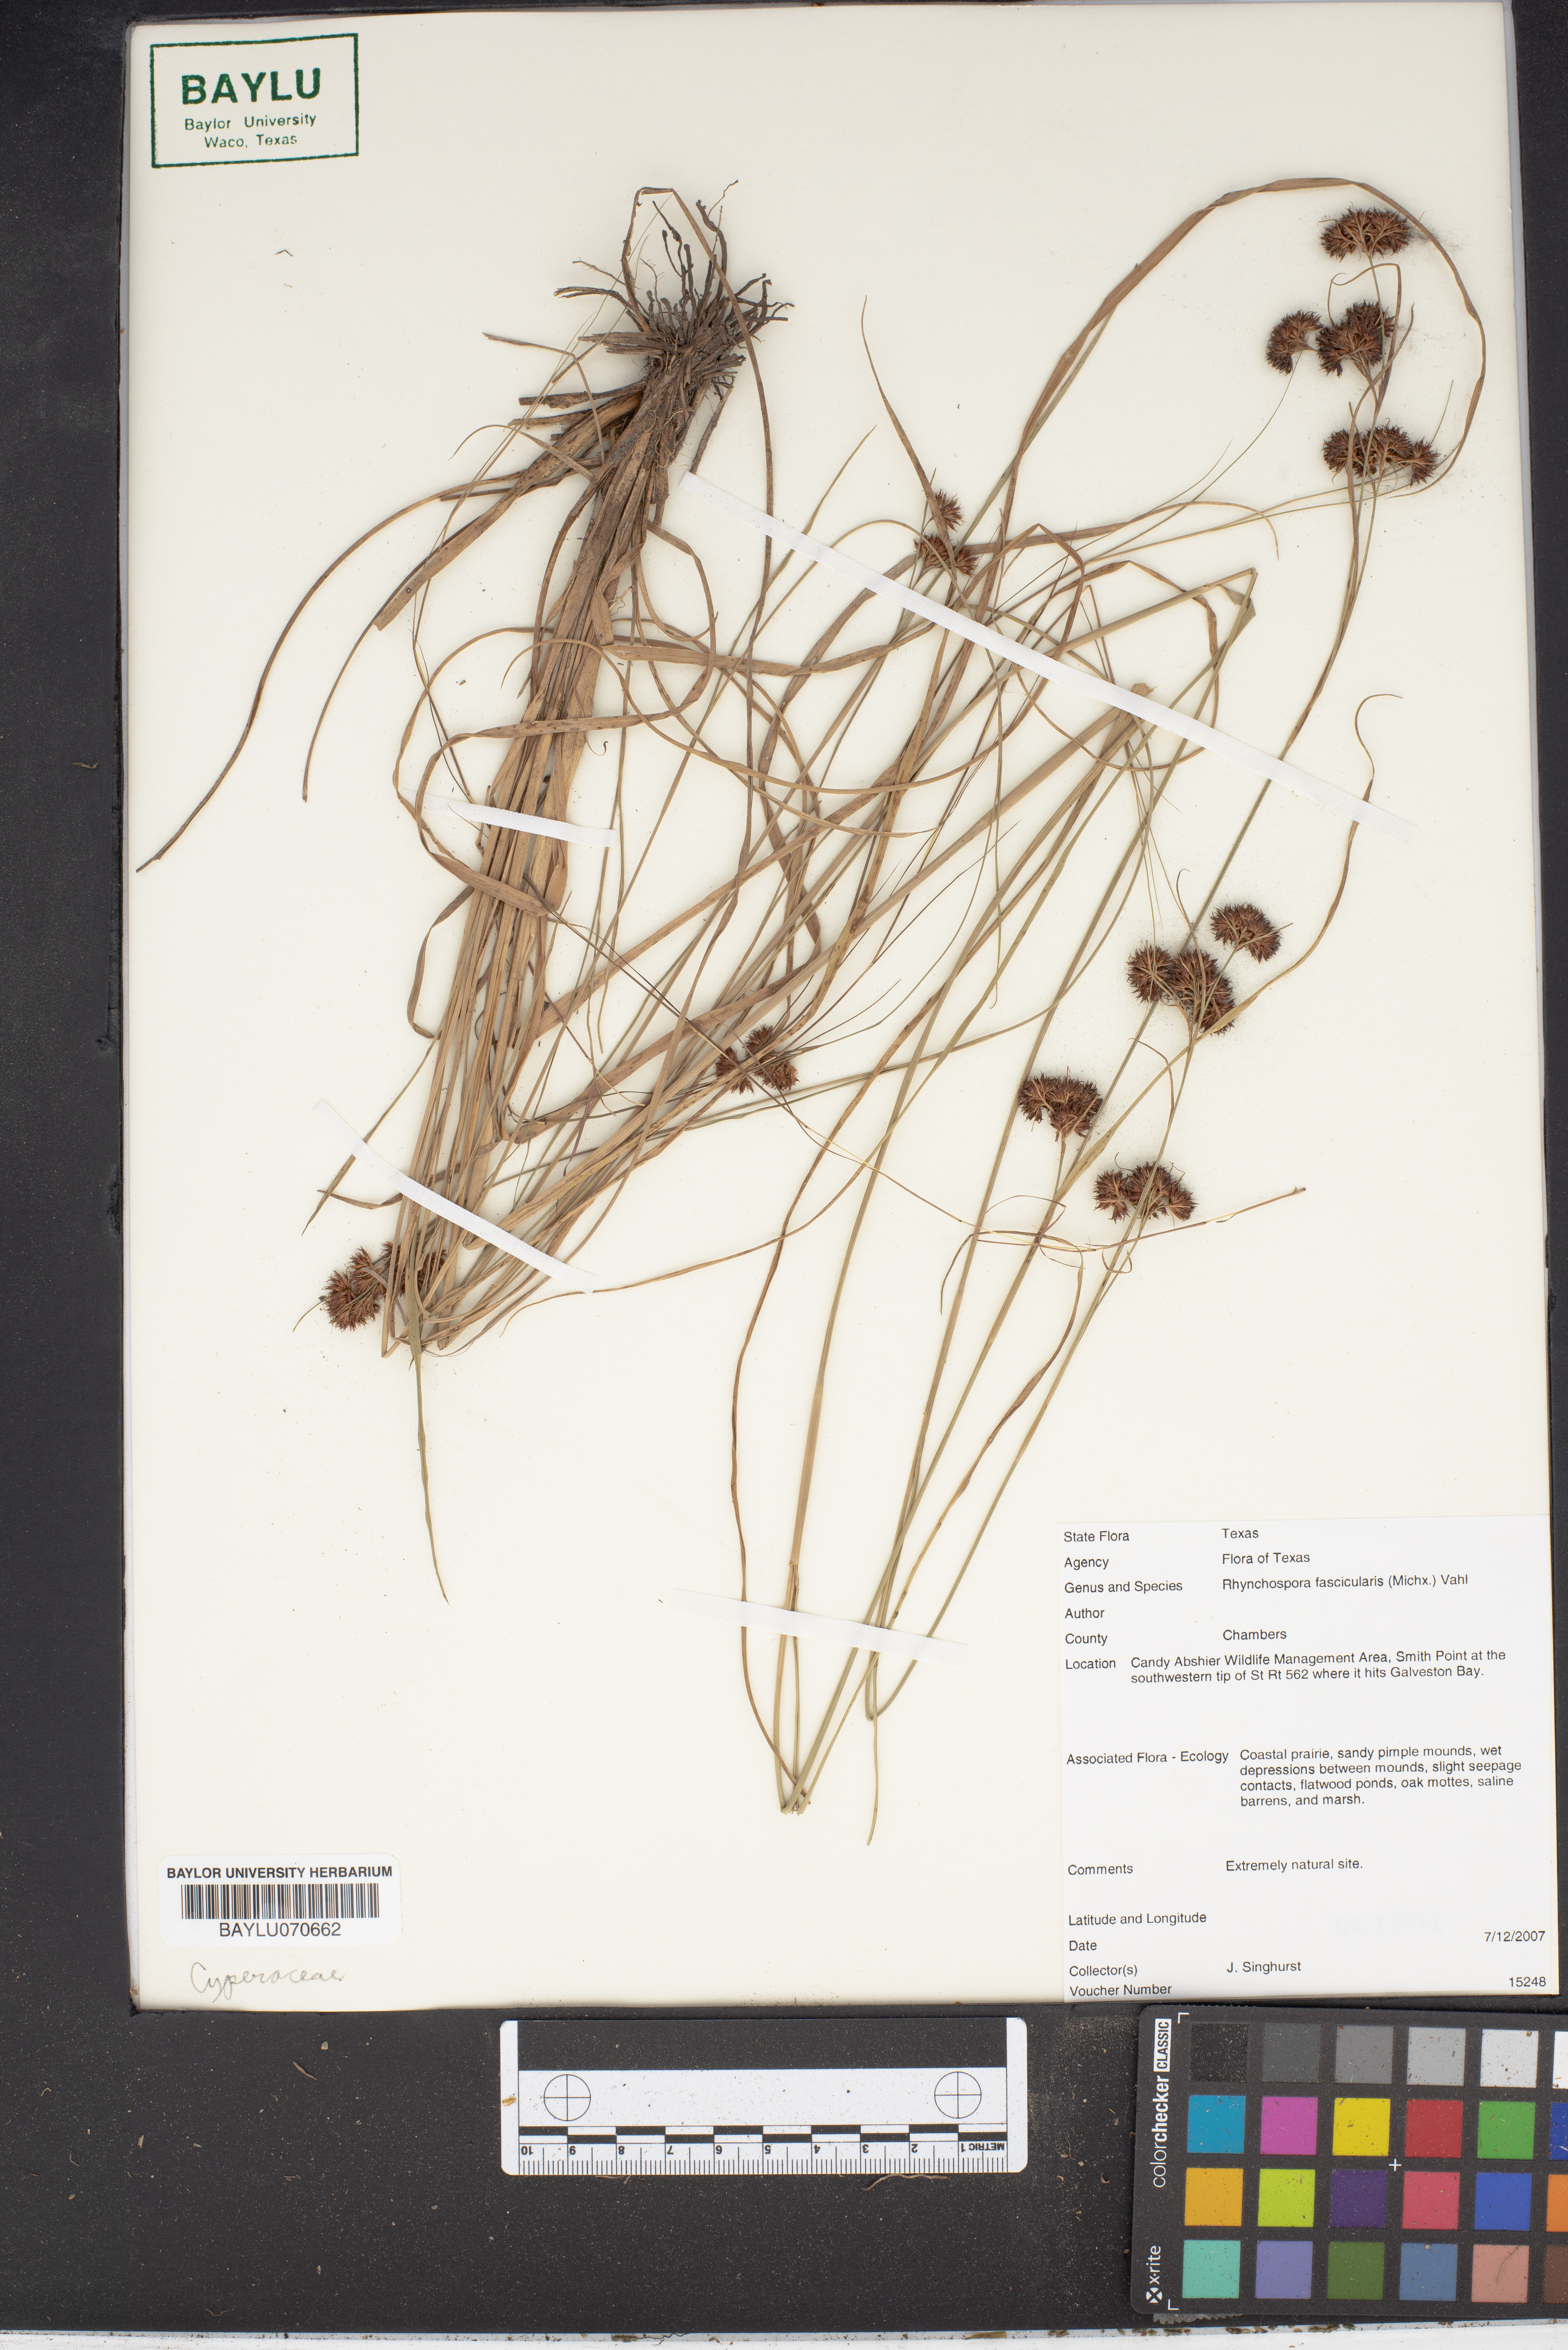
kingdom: Plantae
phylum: Tracheophyta
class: Liliopsida
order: Poales
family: Cyperaceae
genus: Rhynchospora
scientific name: Rhynchospora fascicularis
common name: Fascicled beak sedge
